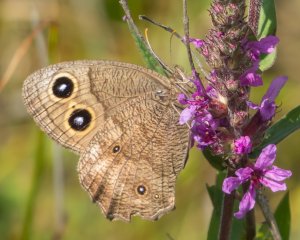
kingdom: Animalia
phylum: Arthropoda
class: Insecta
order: Lepidoptera
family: Nymphalidae
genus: Cercyonis
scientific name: Cercyonis pegala
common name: Common Wood-Nymph
